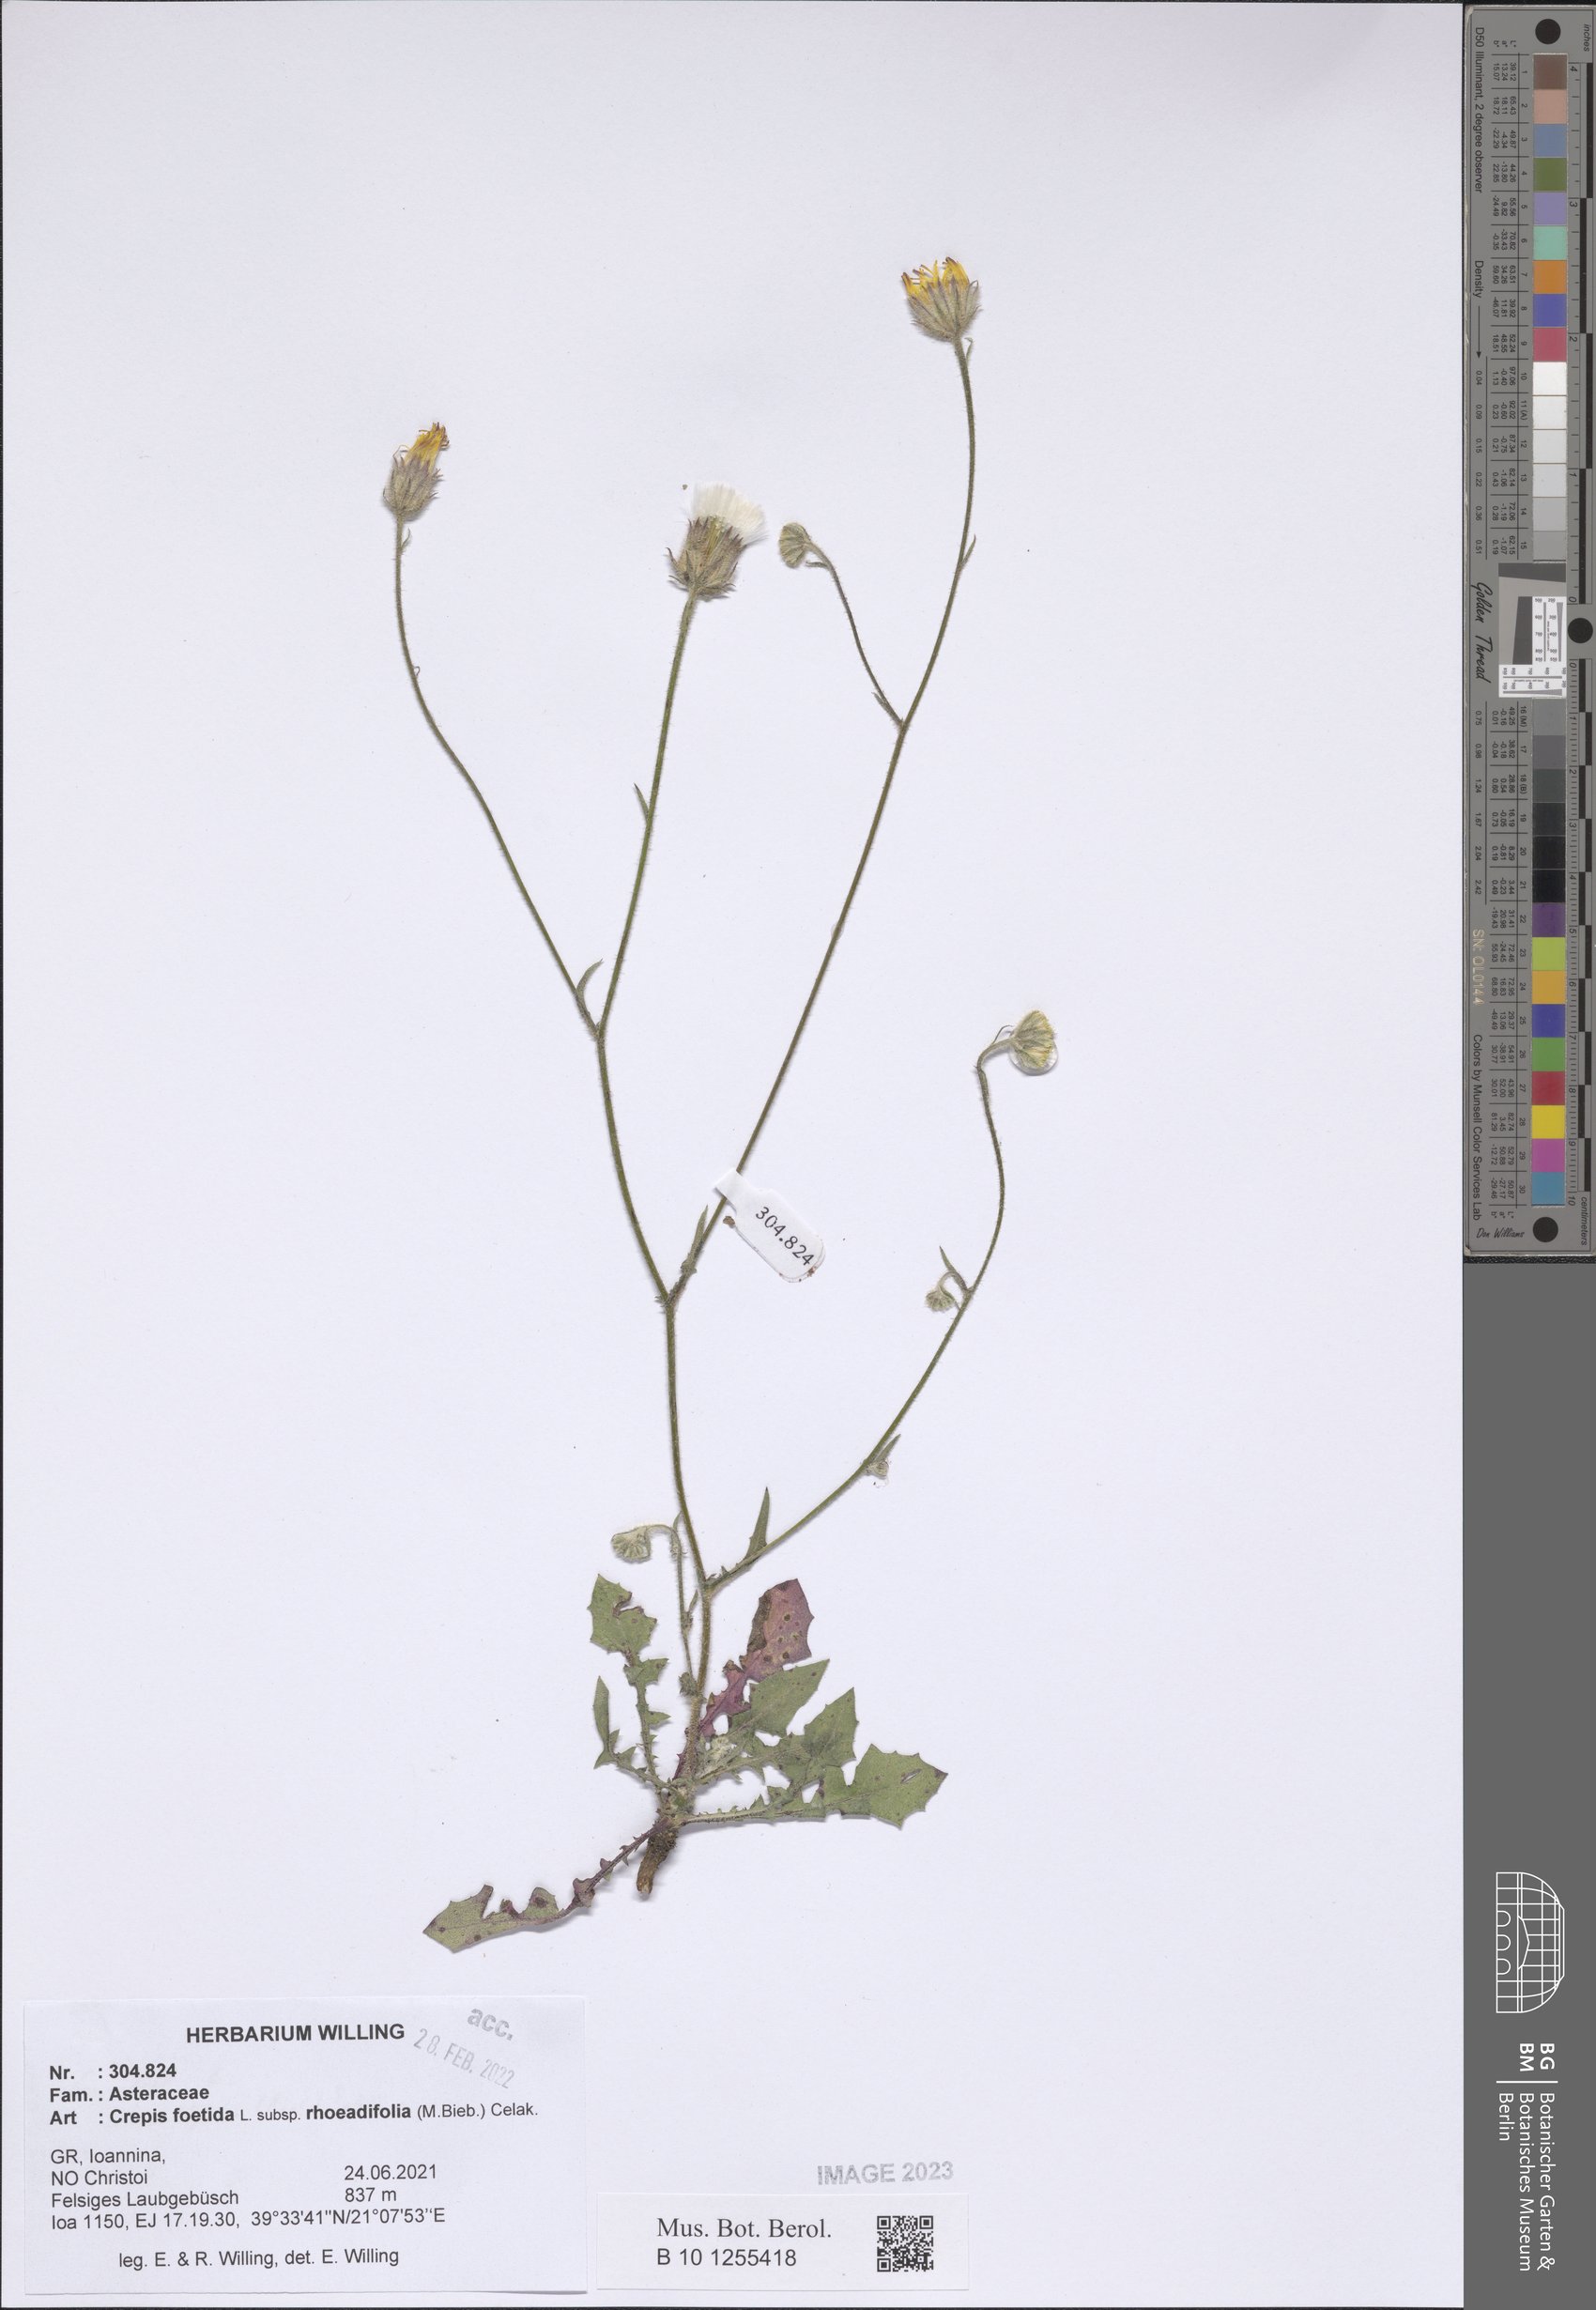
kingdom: Plantae
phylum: Tracheophyta
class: Magnoliopsida
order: Asterales
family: Asteraceae
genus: Crepis
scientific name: Crepis foetida
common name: Stinking hawk's-beard
